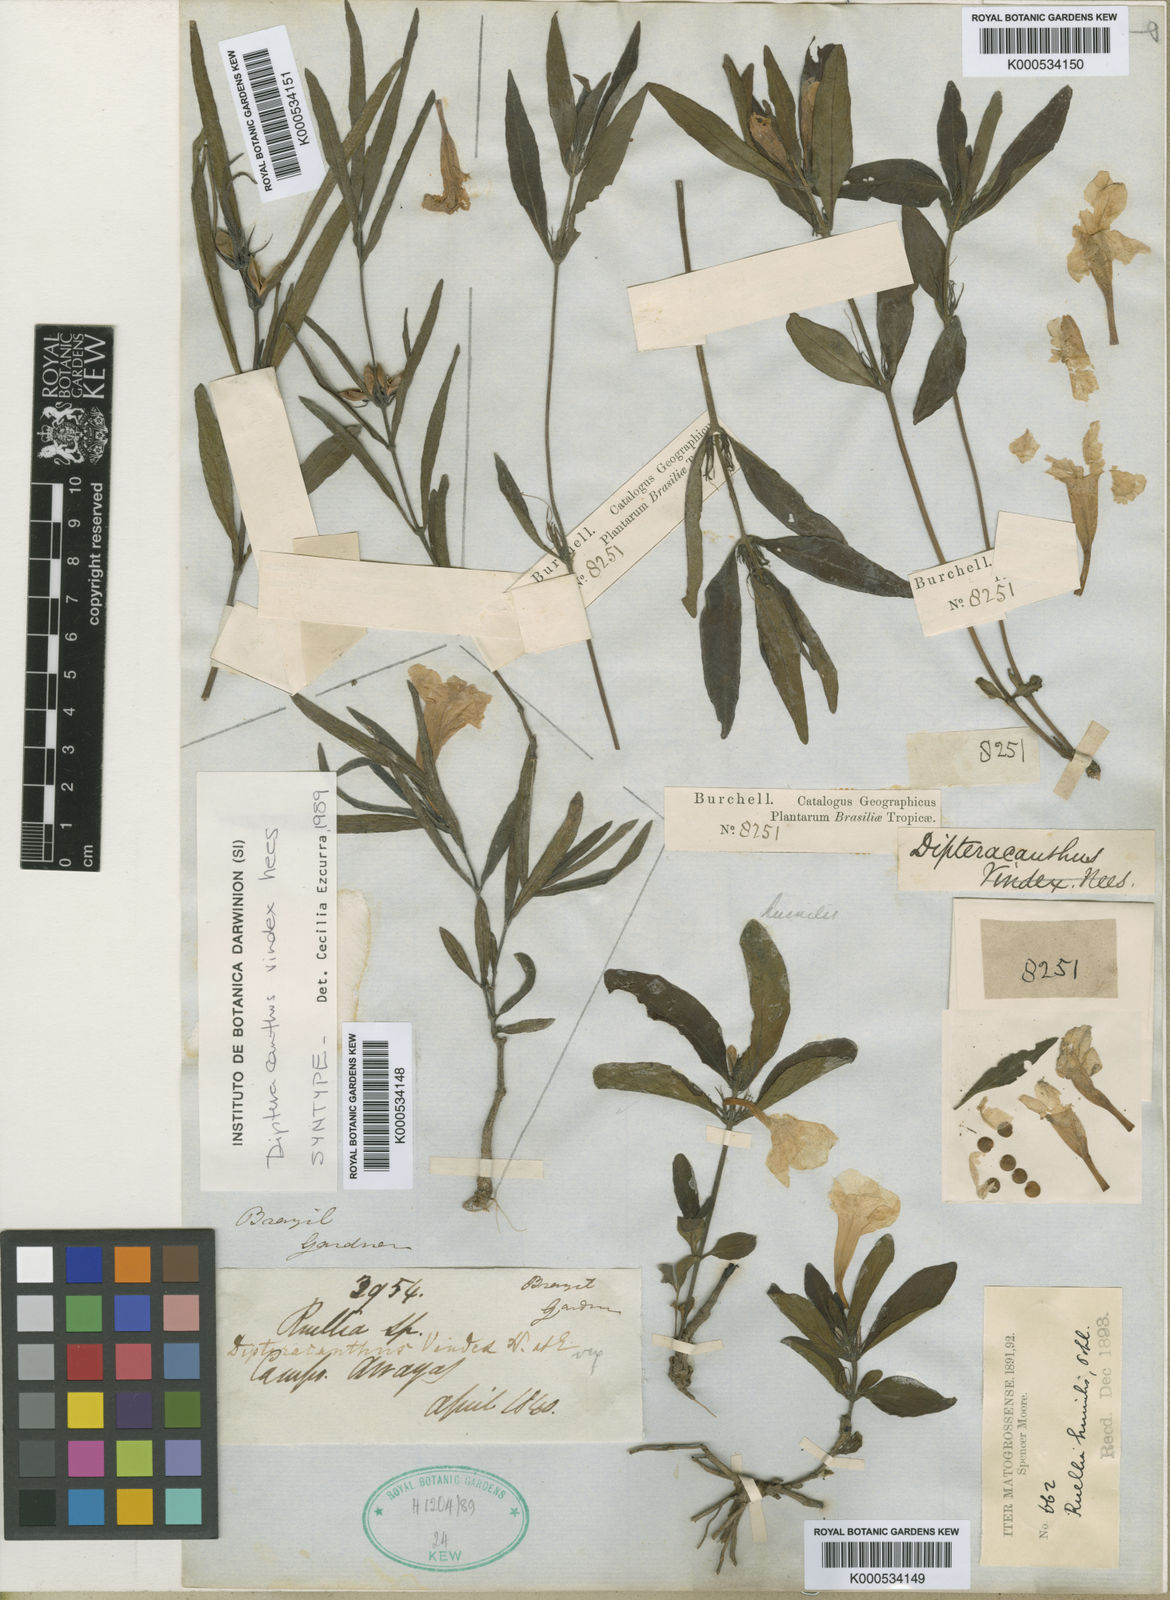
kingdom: Plantae
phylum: Tracheophyta
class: Magnoliopsida
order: Lamiales
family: Acanthaceae
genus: Ruellia
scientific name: Ruellia geminiflora
